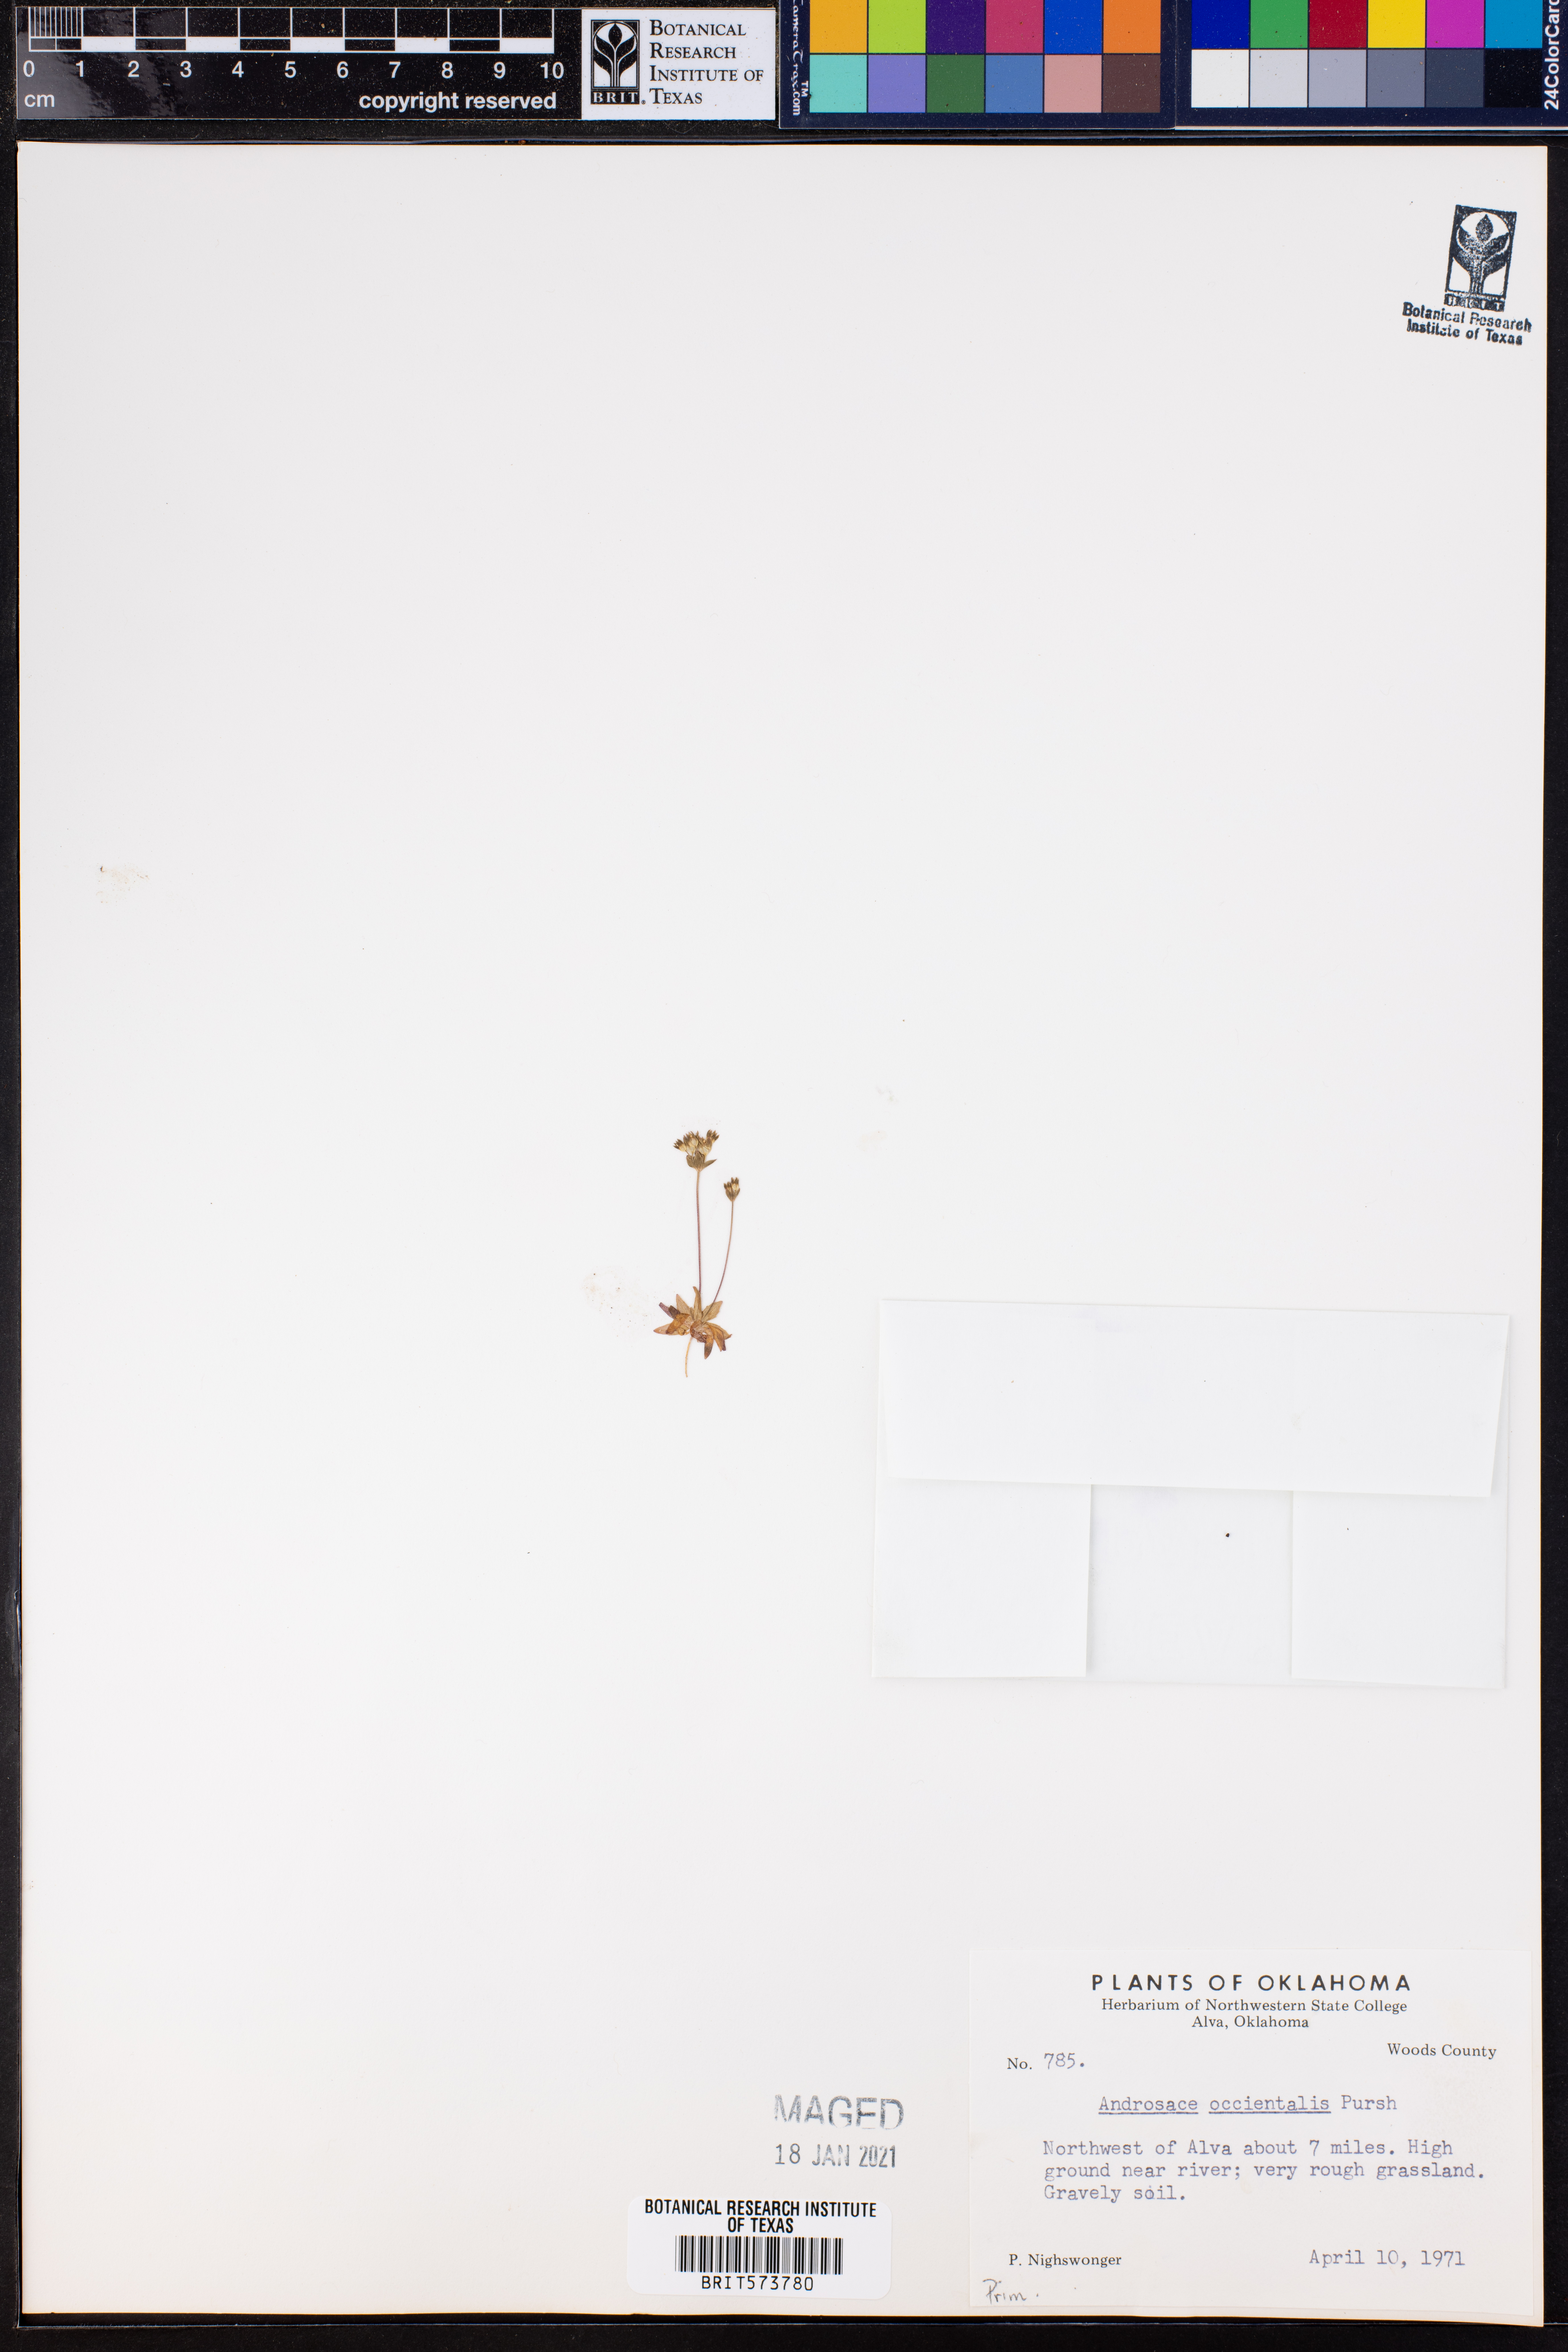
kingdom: Plantae
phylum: Tracheophyta
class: Magnoliopsida
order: Ericales
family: Primulaceae
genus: Androsace
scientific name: Androsace occidentalis
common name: West rock-jasmine
